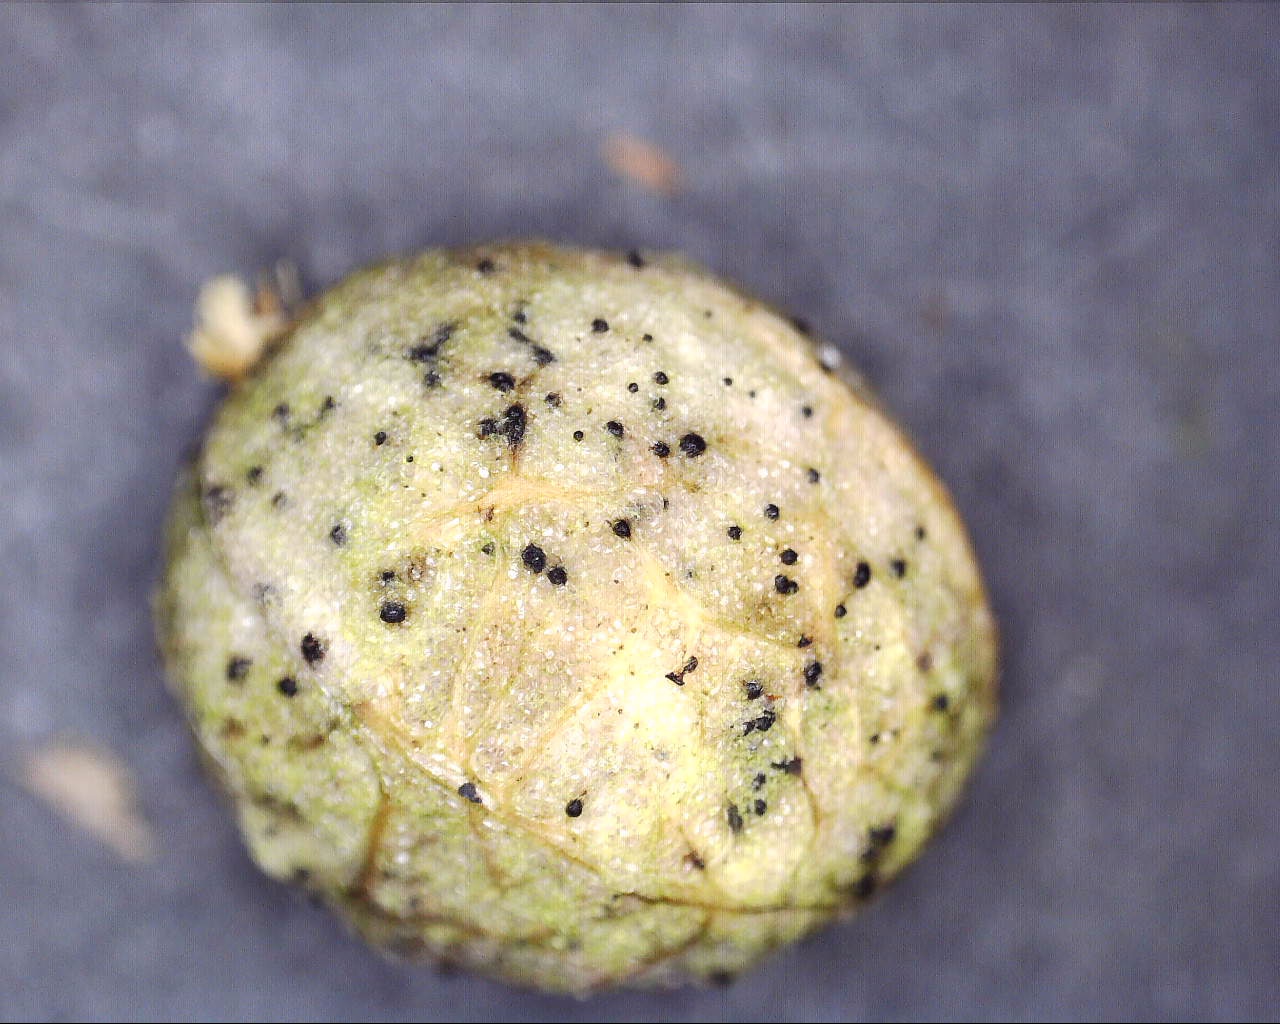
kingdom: Fungi
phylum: Ascomycota
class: Dothideomycetes
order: Pleosporales
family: Pleosporaceae
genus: Stemphylium
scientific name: Stemphylium vesicarium
